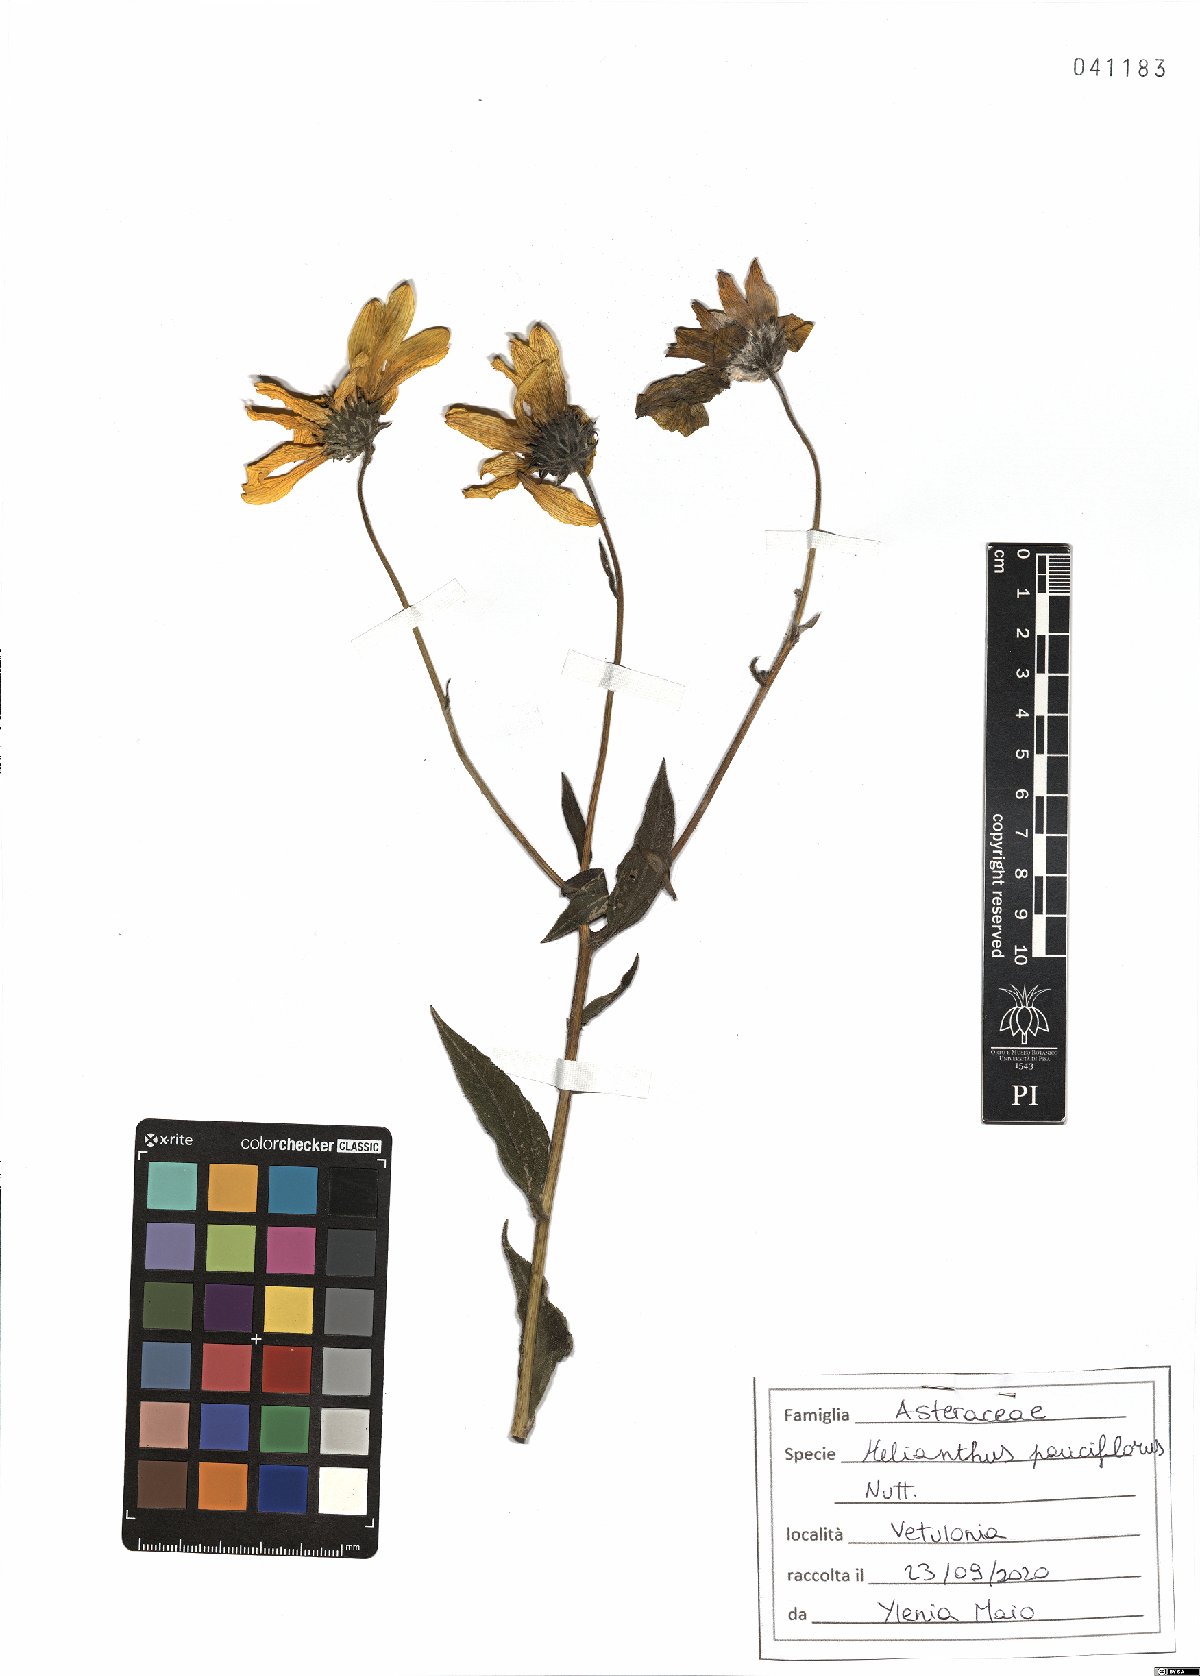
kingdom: Plantae
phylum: Tracheophyta
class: Magnoliopsida
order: Asterales
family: Asteraceae
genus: Helianthus
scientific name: Helianthus pauciflorus
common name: Stiff sunflower
